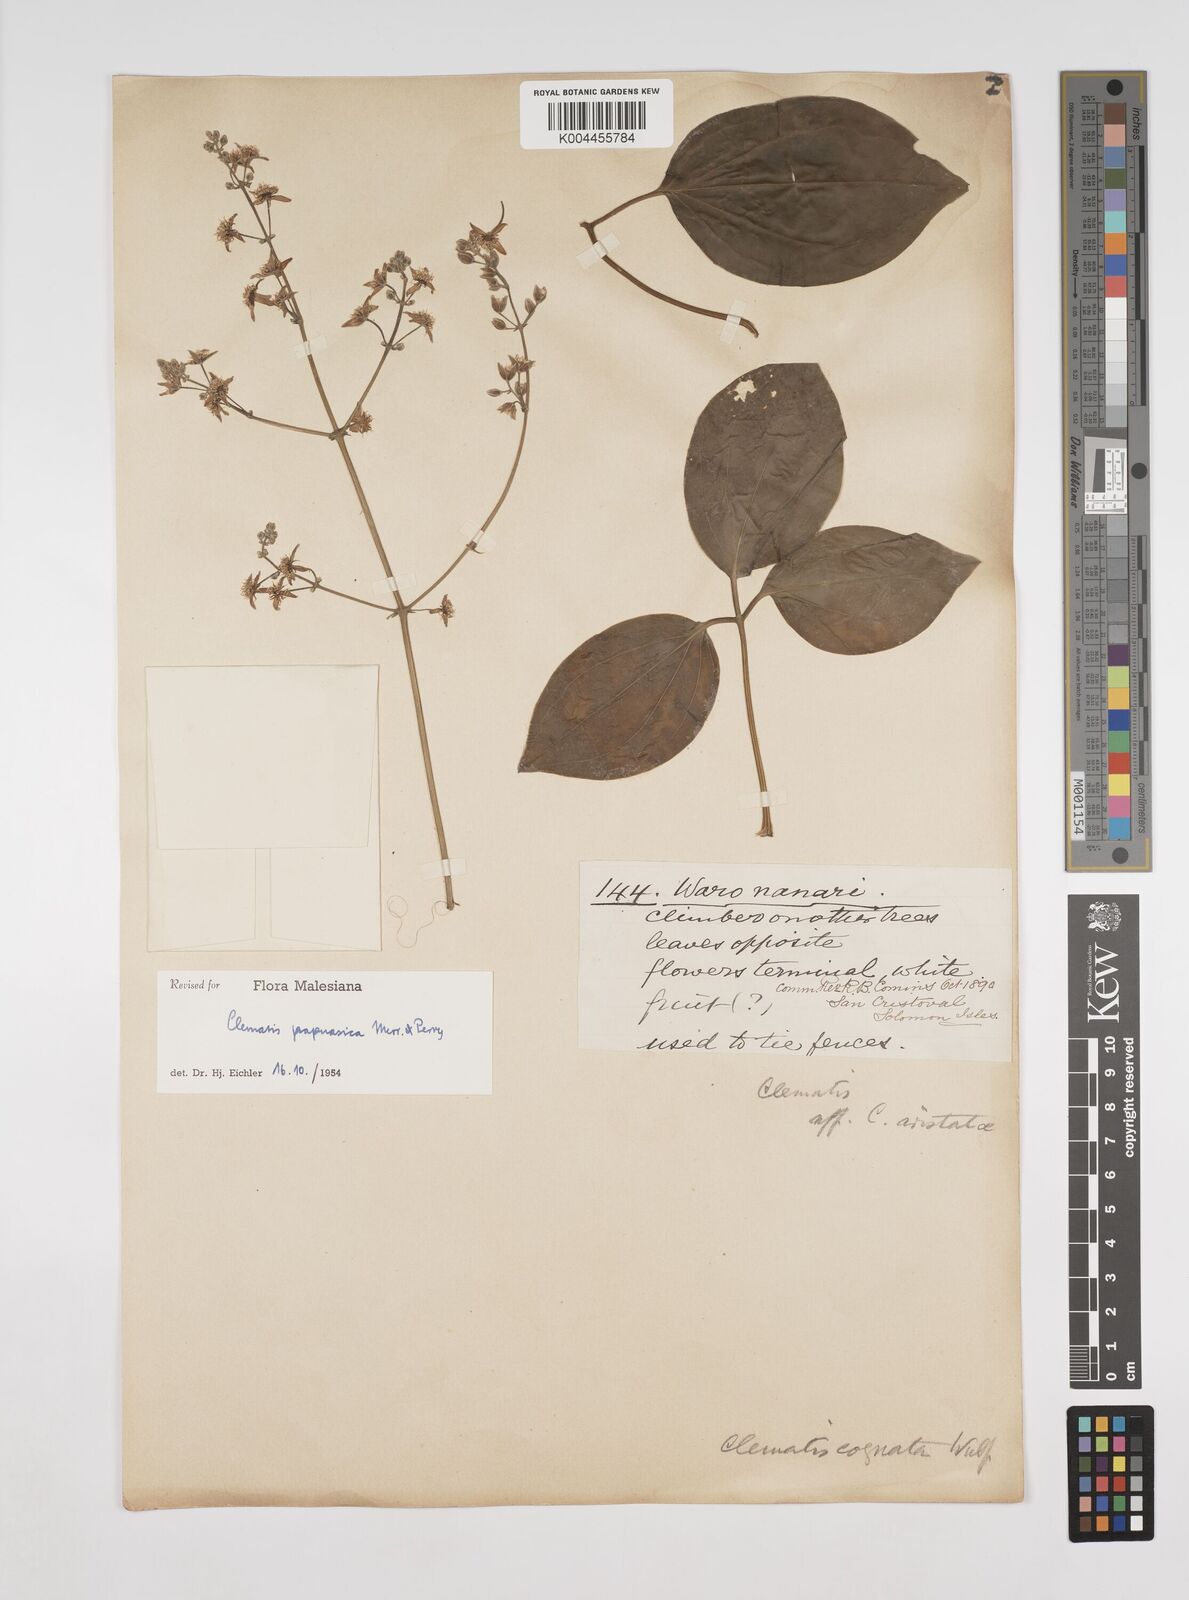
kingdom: Plantae
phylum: Tracheophyta
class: Magnoliopsida
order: Ranunculales
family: Ranunculaceae
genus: Clematis
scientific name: Clematis papuasica
